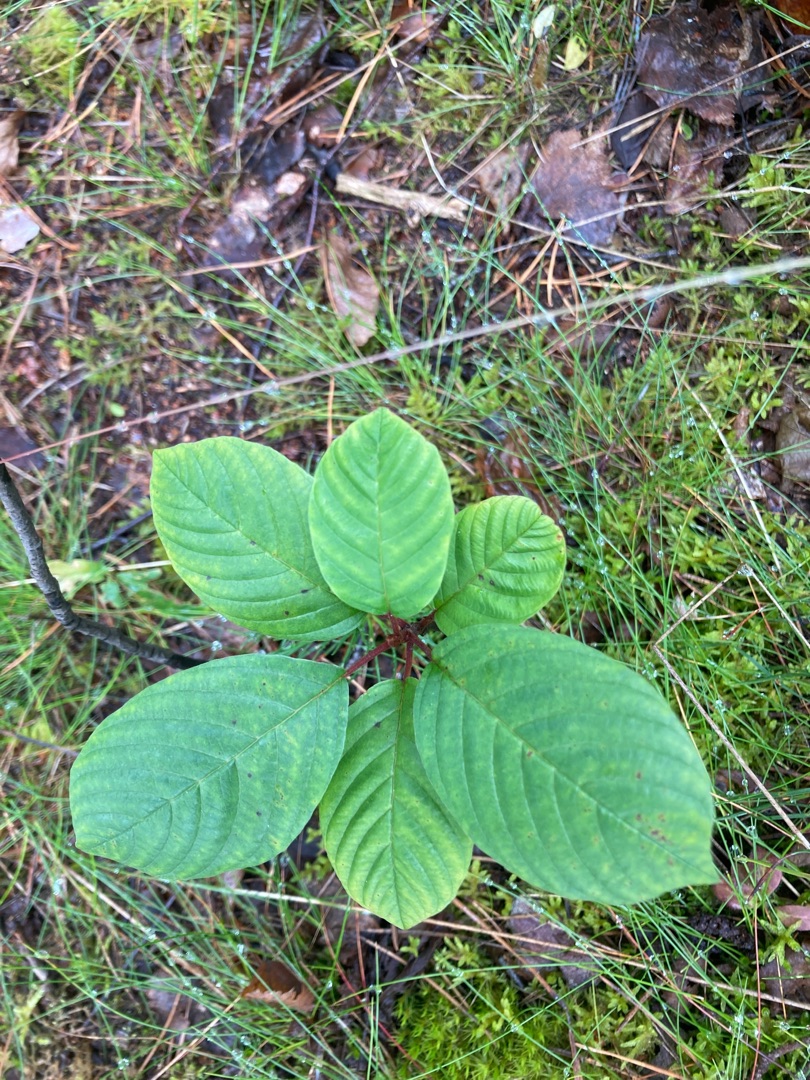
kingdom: Plantae
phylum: Tracheophyta
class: Magnoliopsida
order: Rosales
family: Rhamnaceae
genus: Frangula
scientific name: Frangula alnus
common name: Tørst
